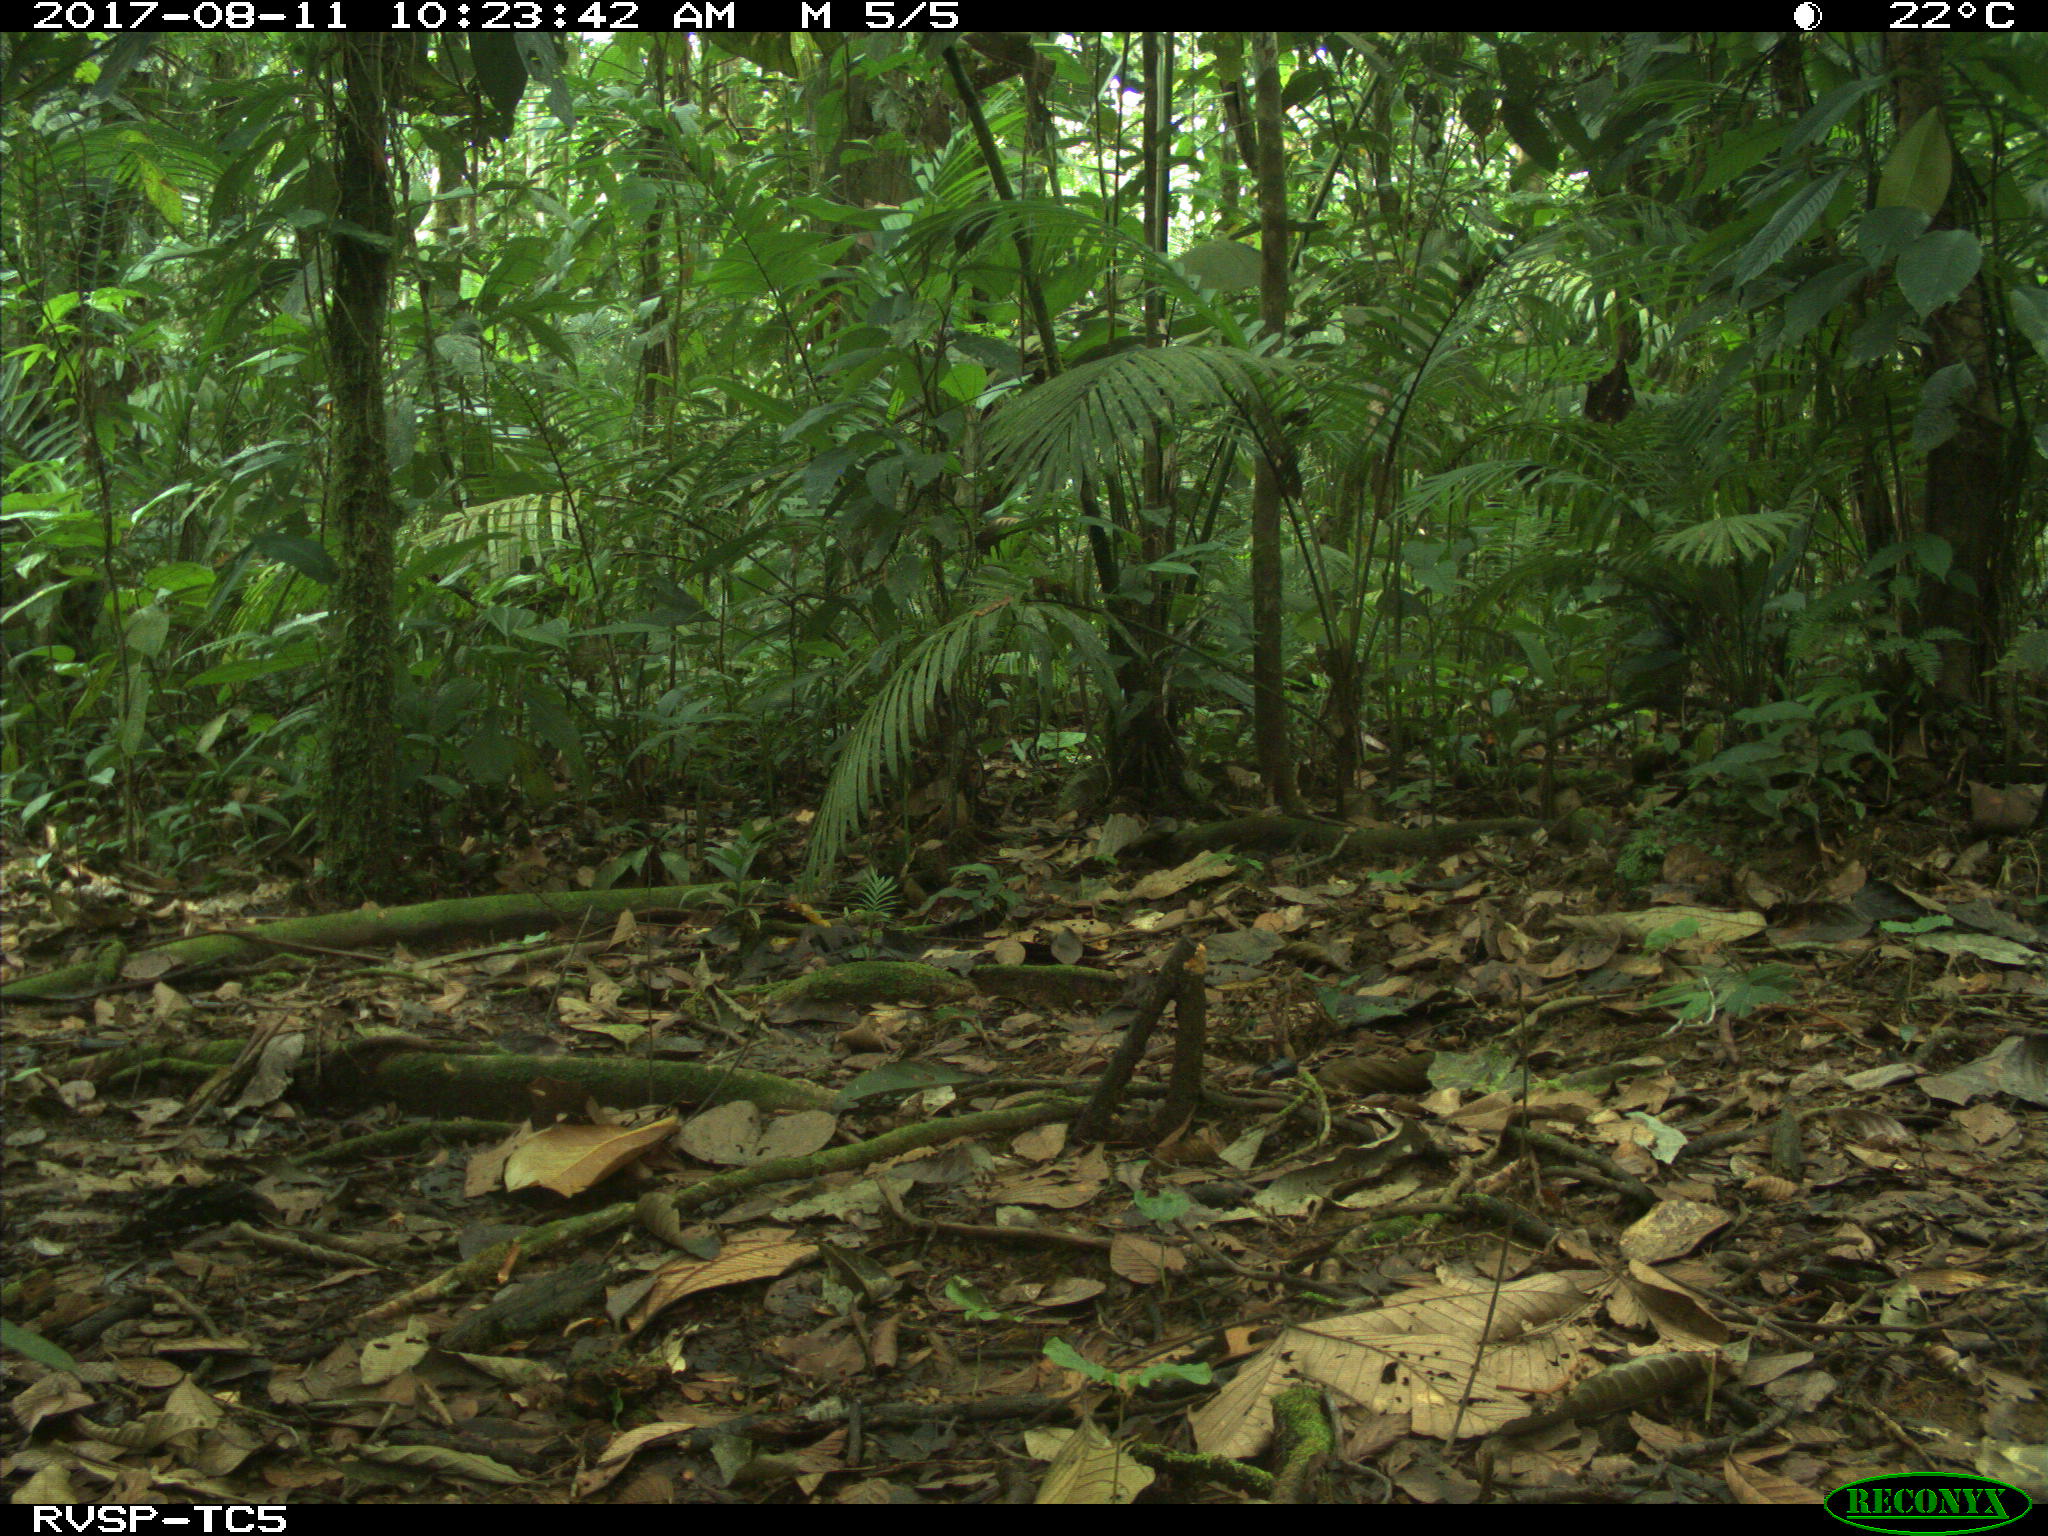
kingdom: Animalia
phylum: Chordata
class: Mammalia
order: Artiodactyla
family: Tayassuidae
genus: Tayassu
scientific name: Tayassu pecari
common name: White-lipped peccary
